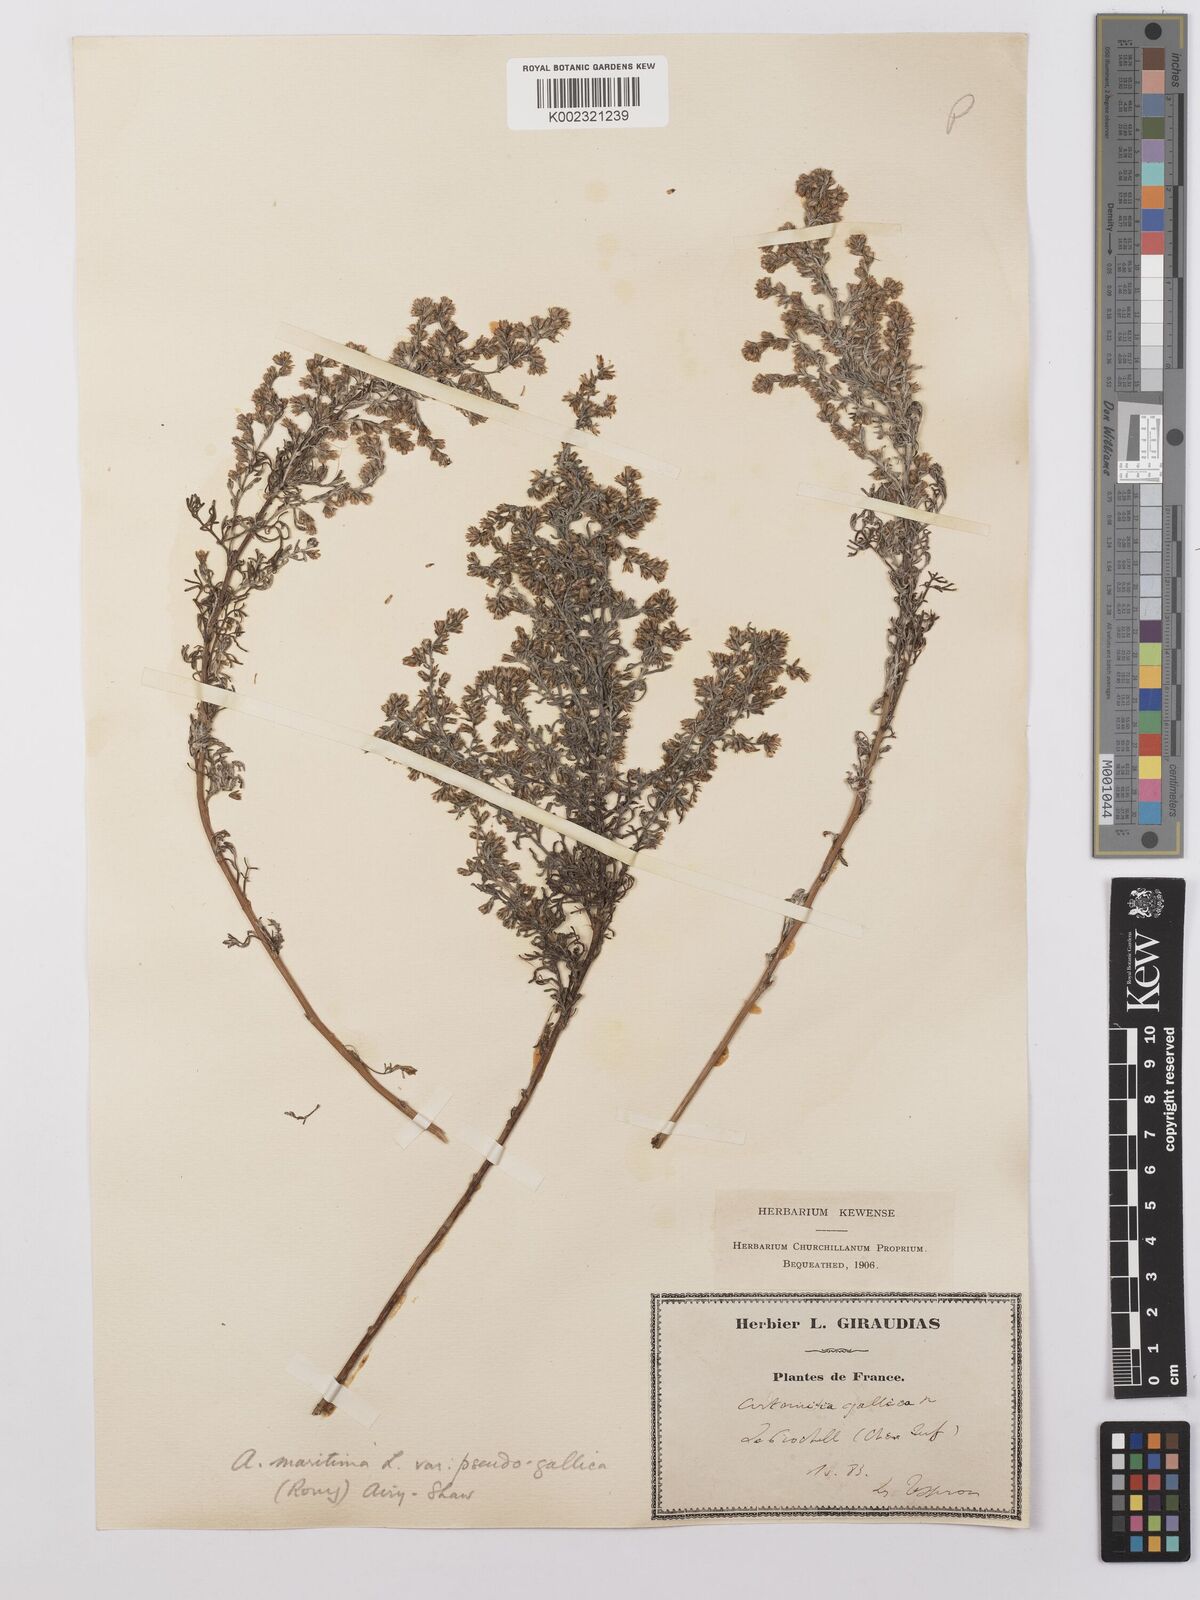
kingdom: Plantae
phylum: Tracheophyta
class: Magnoliopsida
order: Asterales
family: Asteraceae
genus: Artemisia
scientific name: Artemisia maritima
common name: Wormseed
